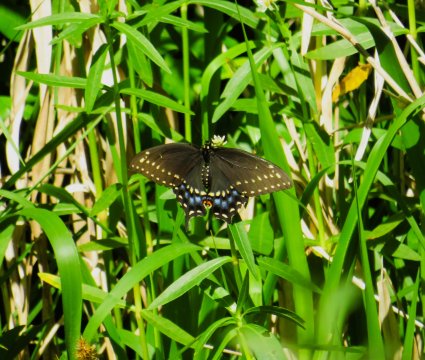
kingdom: Animalia
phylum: Arthropoda
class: Insecta
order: Lepidoptera
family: Papilionidae
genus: Papilio
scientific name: Papilio polyxenes
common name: Black Swallowtail
